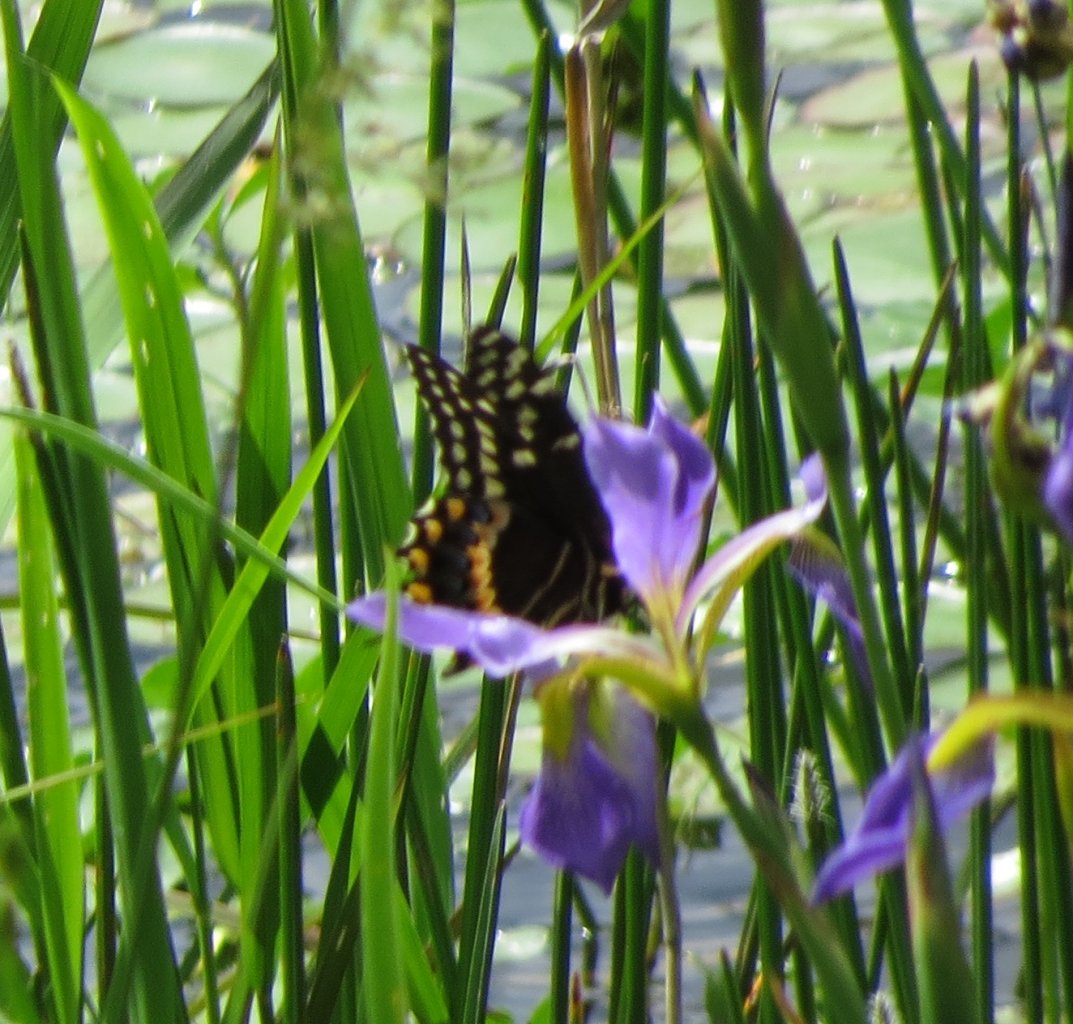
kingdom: Animalia
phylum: Arthropoda
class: Insecta
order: Lepidoptera
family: Papilionidae
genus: Pterourus
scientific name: Pterourus palamedes
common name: Palamedes Swallowtail
